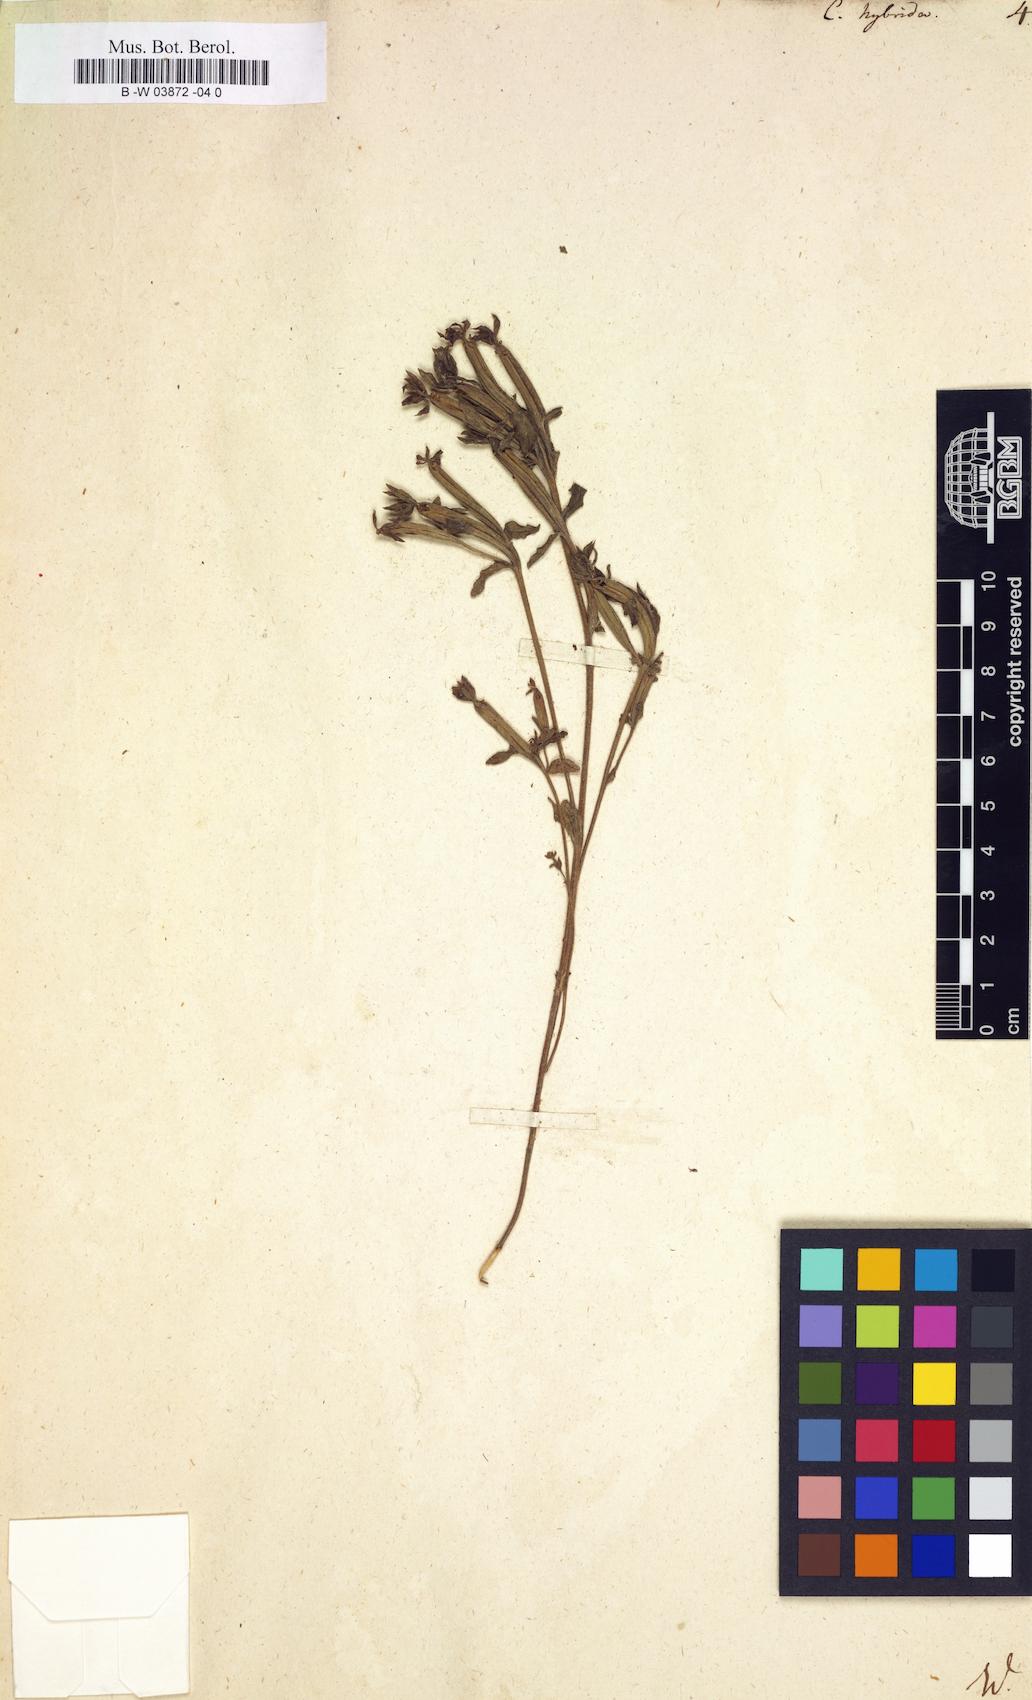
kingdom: Plantae
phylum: Tracheophyta
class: Magnoliopsida
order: Asterales
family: Campanulaceae
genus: Legousia
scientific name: Legousia hybrida
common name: Venus's-looking-glass
